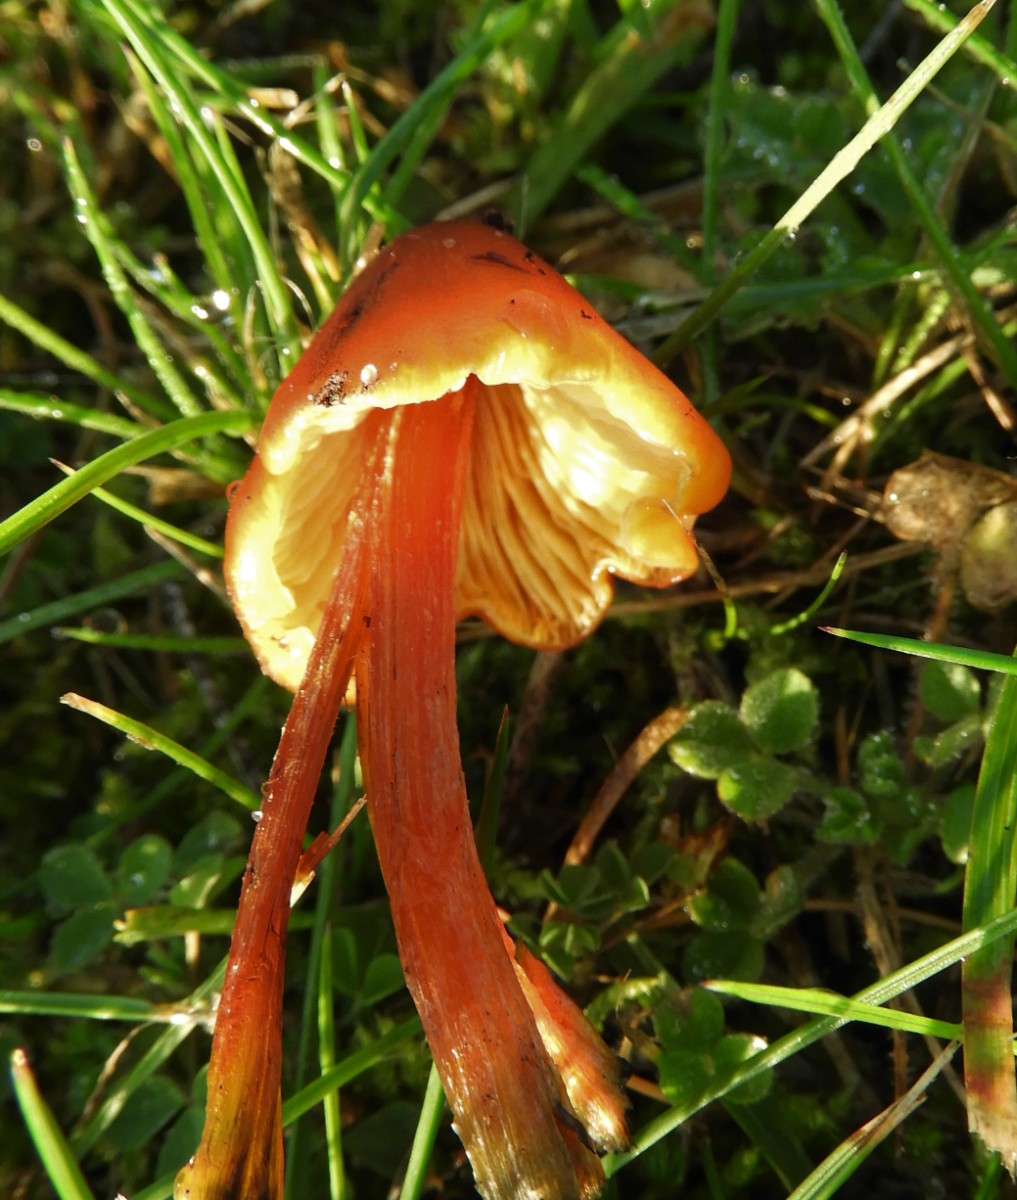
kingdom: Fungi
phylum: Basidiomycota
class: Agaricomycetes
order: Agaricales
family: Hygrophoraceae
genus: Hygrocybe
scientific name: Hygrocybe conica
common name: kegle-vokshat
